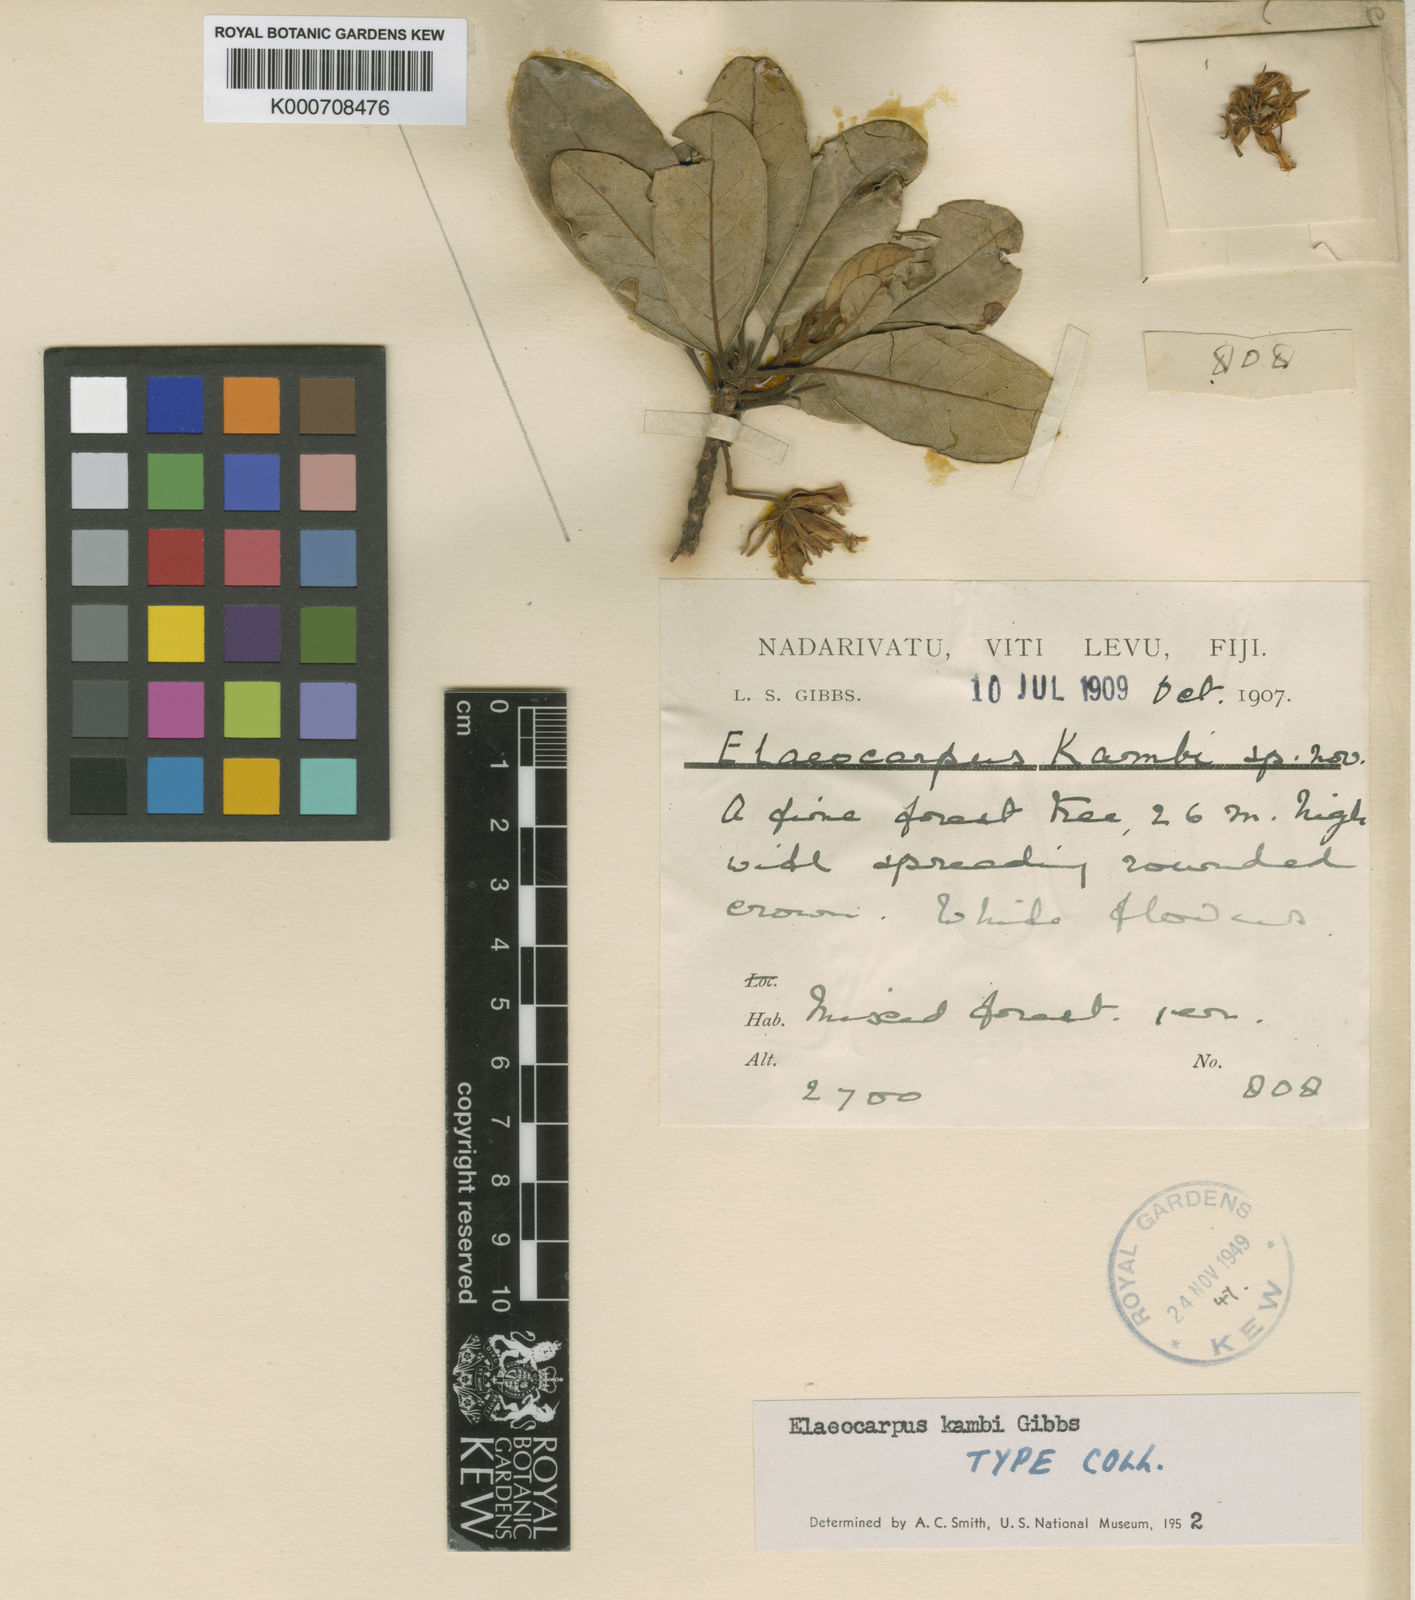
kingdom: Plantae
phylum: Tracheophyta
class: Magnoliopsida
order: Oxalidales
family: Elaeocarpaceae
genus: Elaeocarpus
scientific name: Elaeocarpus kambi
